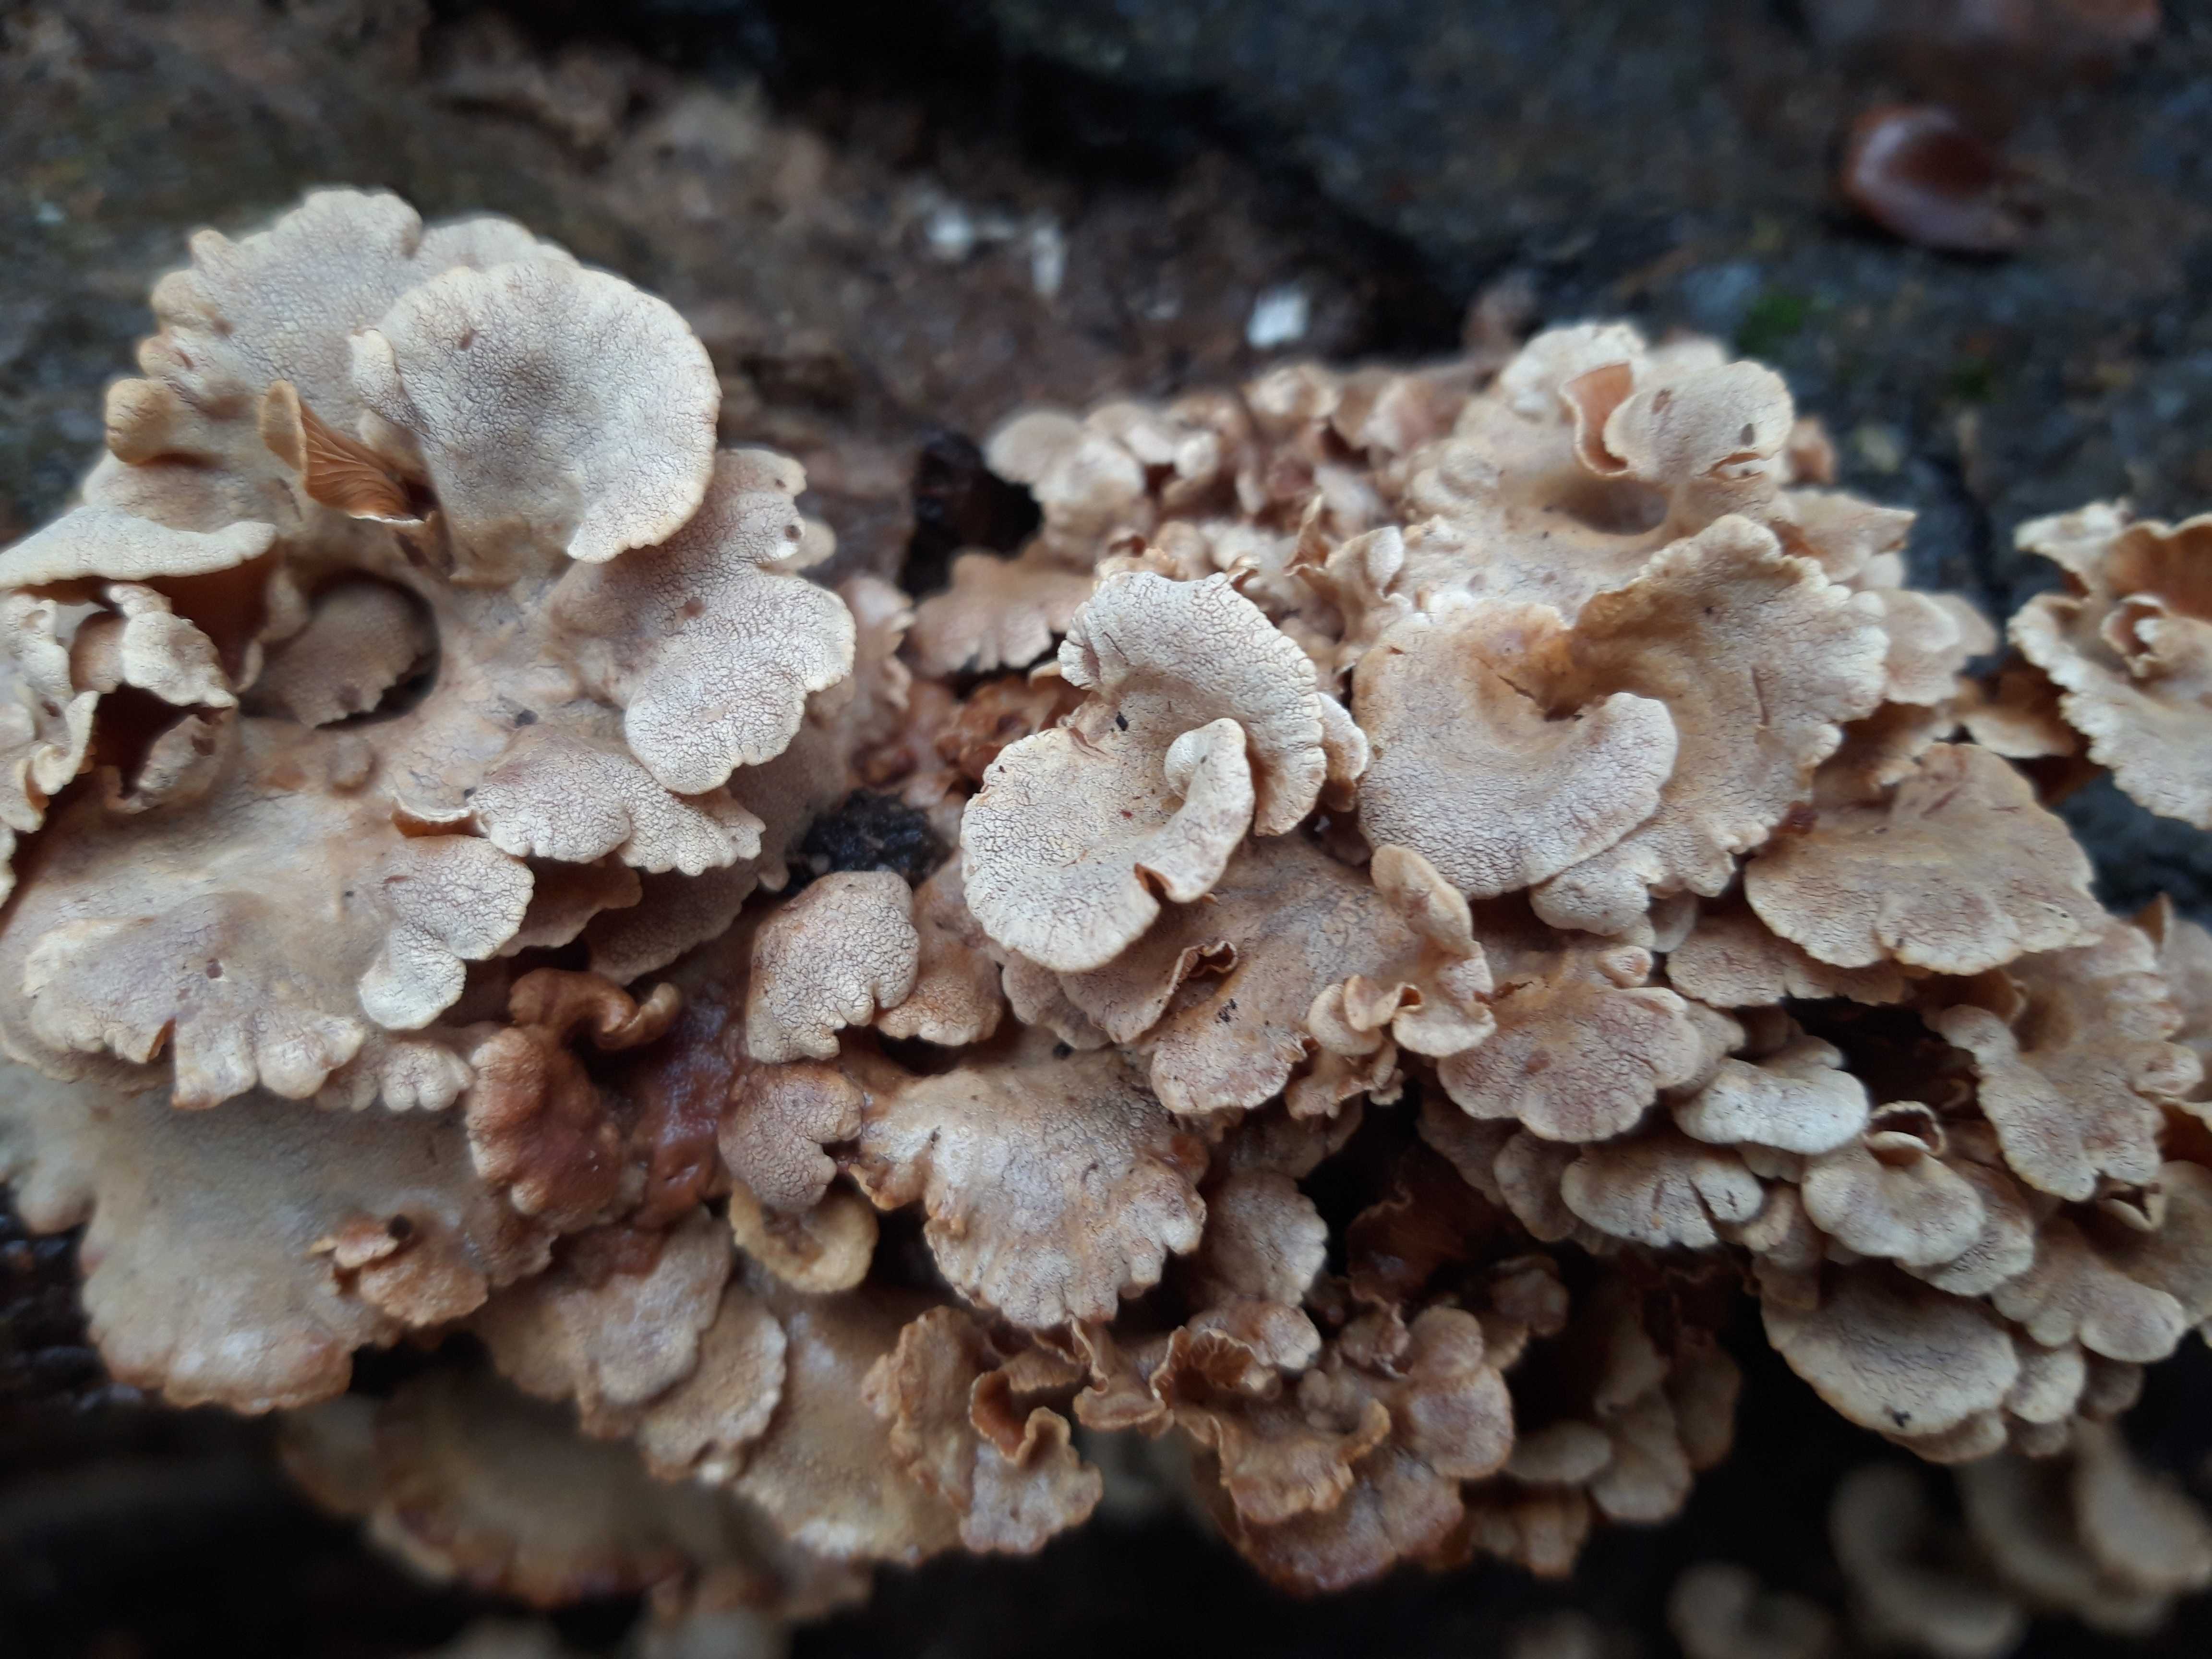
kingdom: Fungi
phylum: Basidiomycota
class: Agaricomycetes
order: Agaricales
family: Mycenaceae
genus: Panellus
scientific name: Panellus stipticus
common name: kliddet epaulethat
